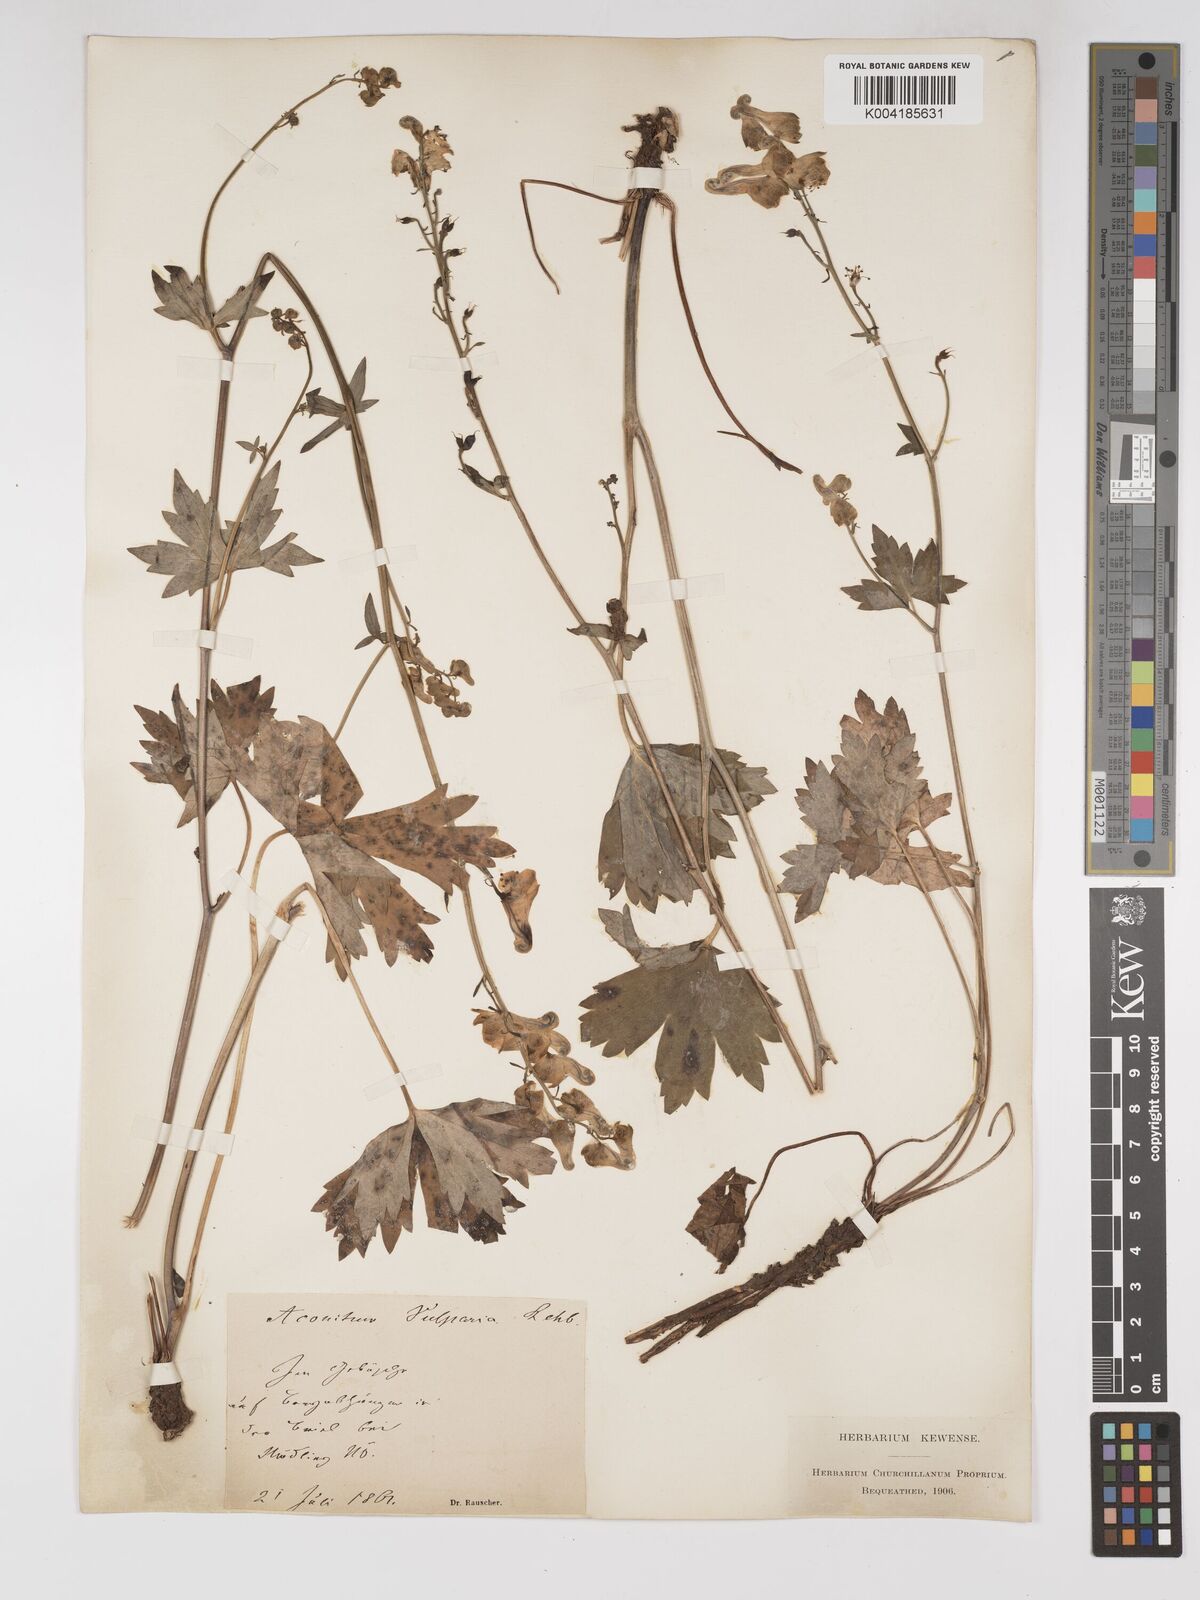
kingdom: Plantae
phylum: Tracheophyta
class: Magnoliopsida
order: Ranunculales
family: Ranunculaceae
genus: Aconitum
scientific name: Aconitum lycoctonum
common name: Wolf's-bane
